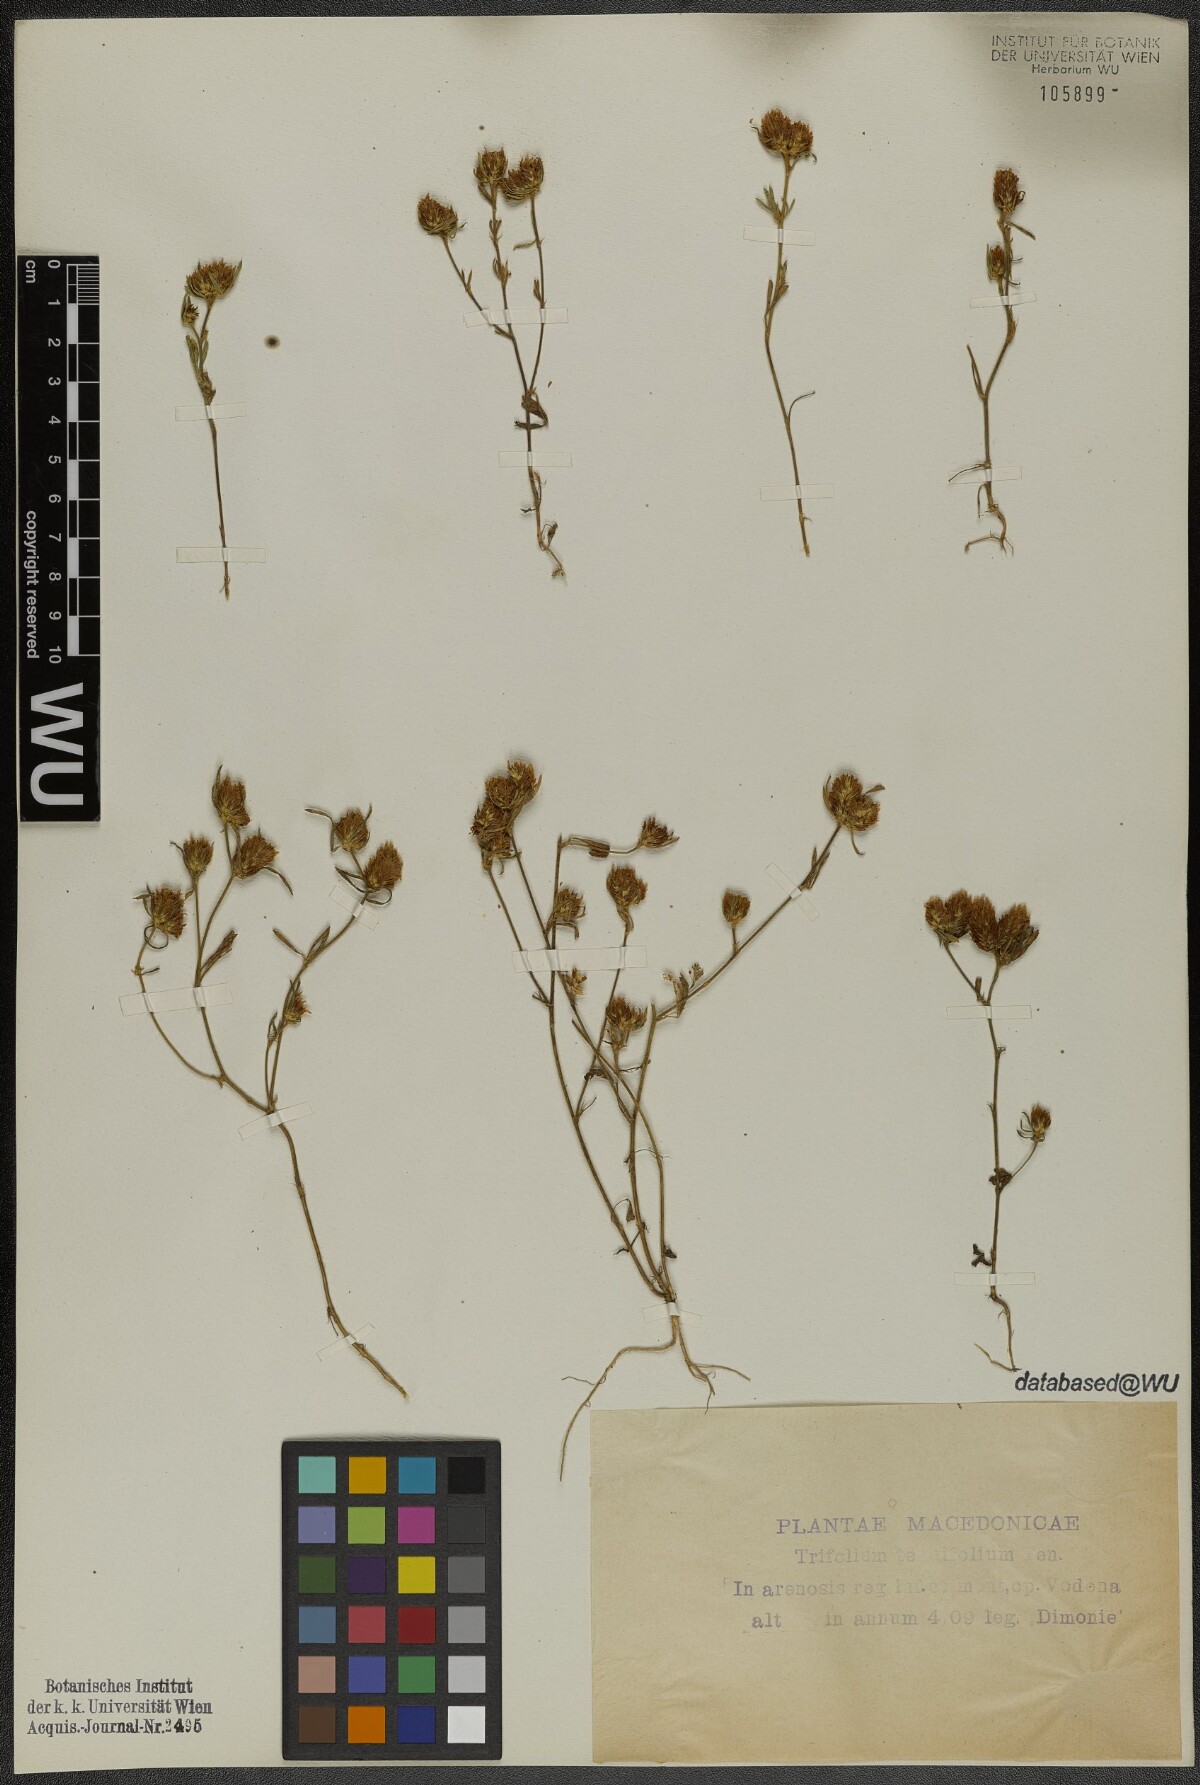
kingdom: Plantae
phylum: Tracheophyta
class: Magnoliopsida
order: Fabales
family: Fabaceae
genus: Trifolium
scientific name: Trifolium tenuifolium
